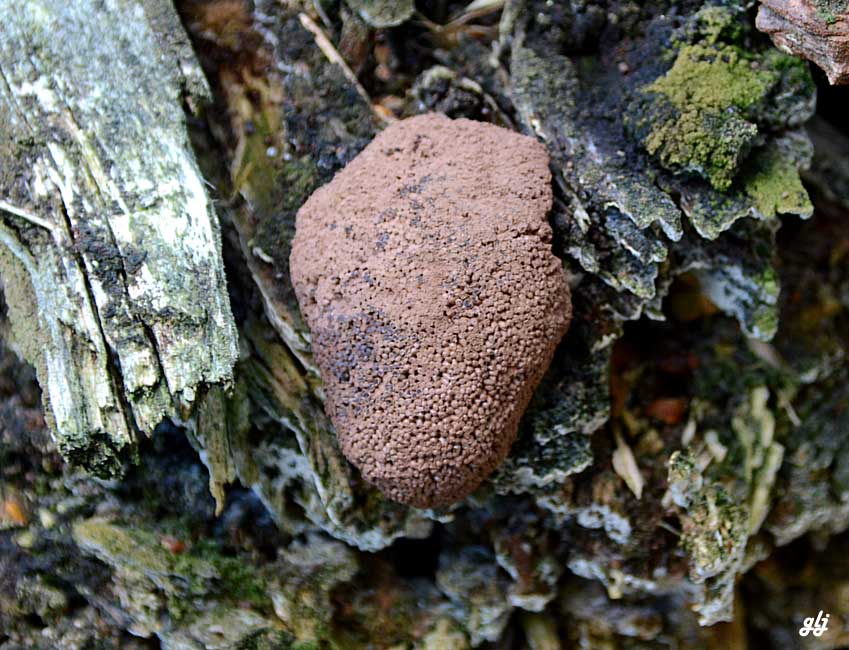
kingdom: Protozoa
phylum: Mycetozoa
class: Myxomycetes
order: Cribrariales
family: Tubiferaceae
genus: Tubifera
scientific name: Tubifera ferruginosa
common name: kanel-støvrør
